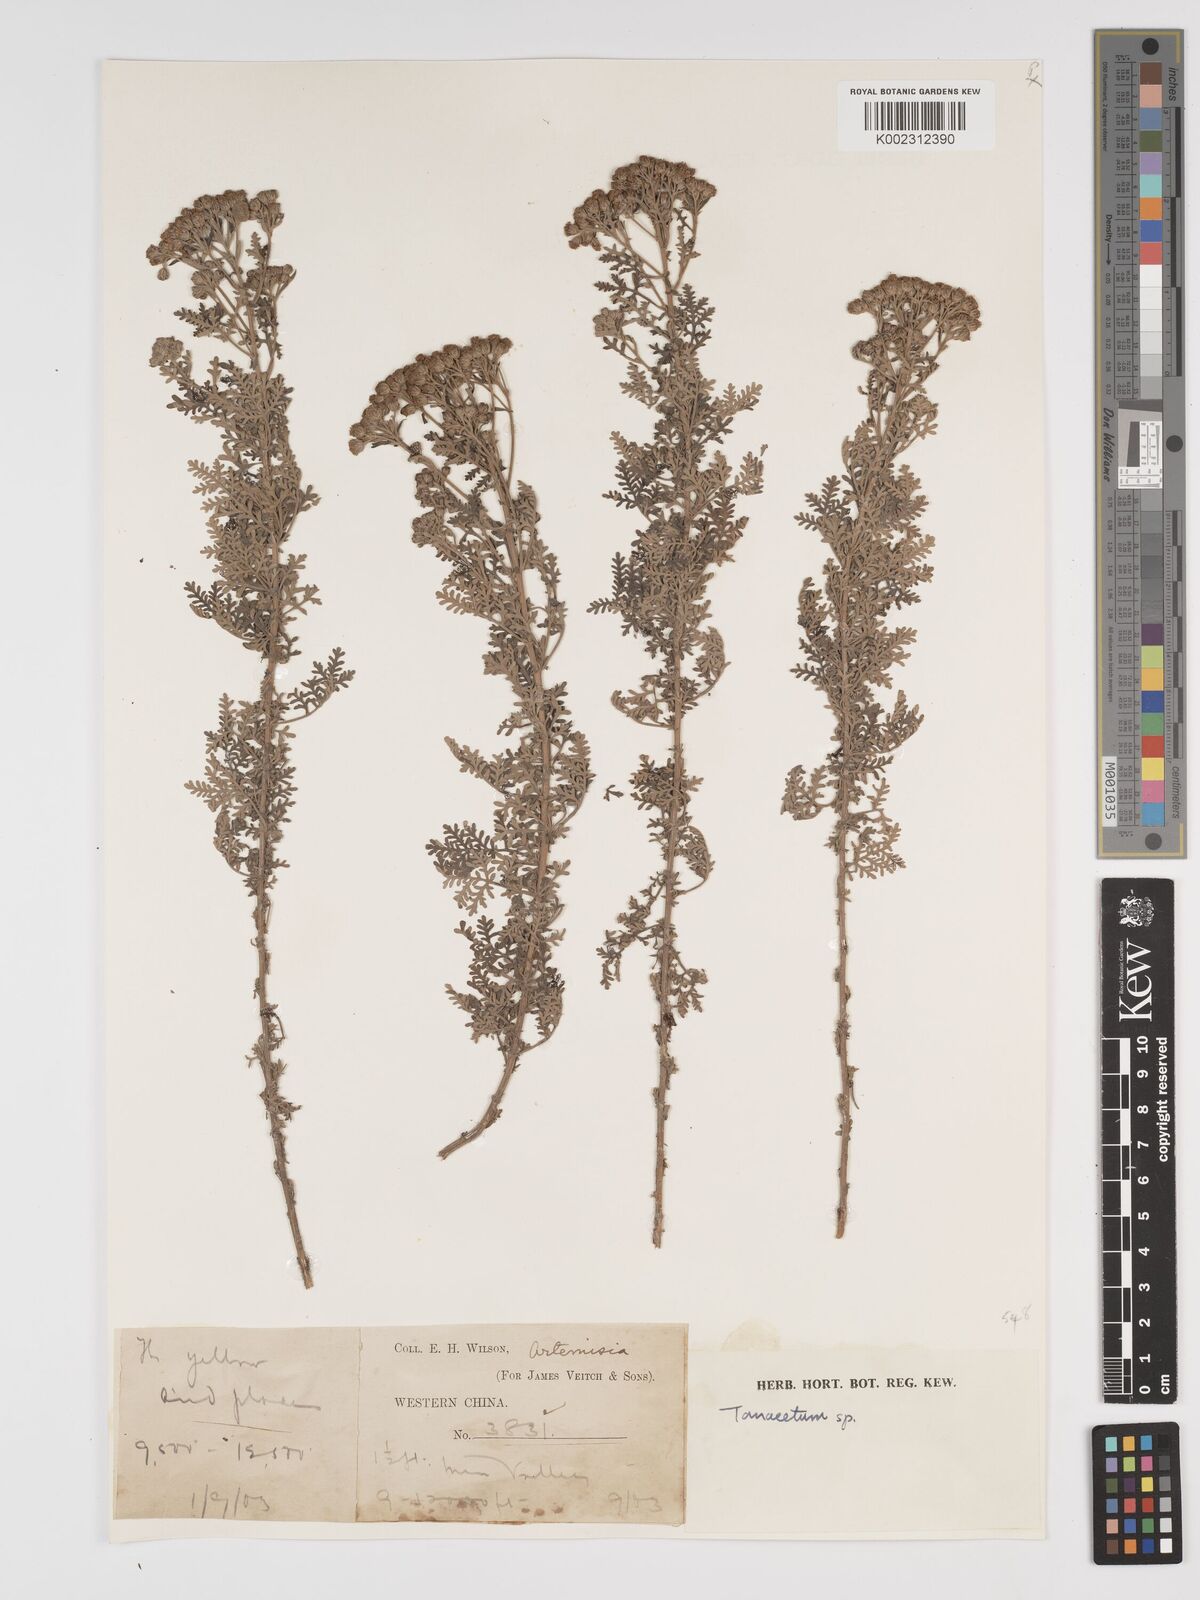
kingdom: Plantae
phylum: Tracheophyta
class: Magnoliopsida
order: Asterales
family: Asteraceae
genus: Tanacetum
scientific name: Tanacetum
